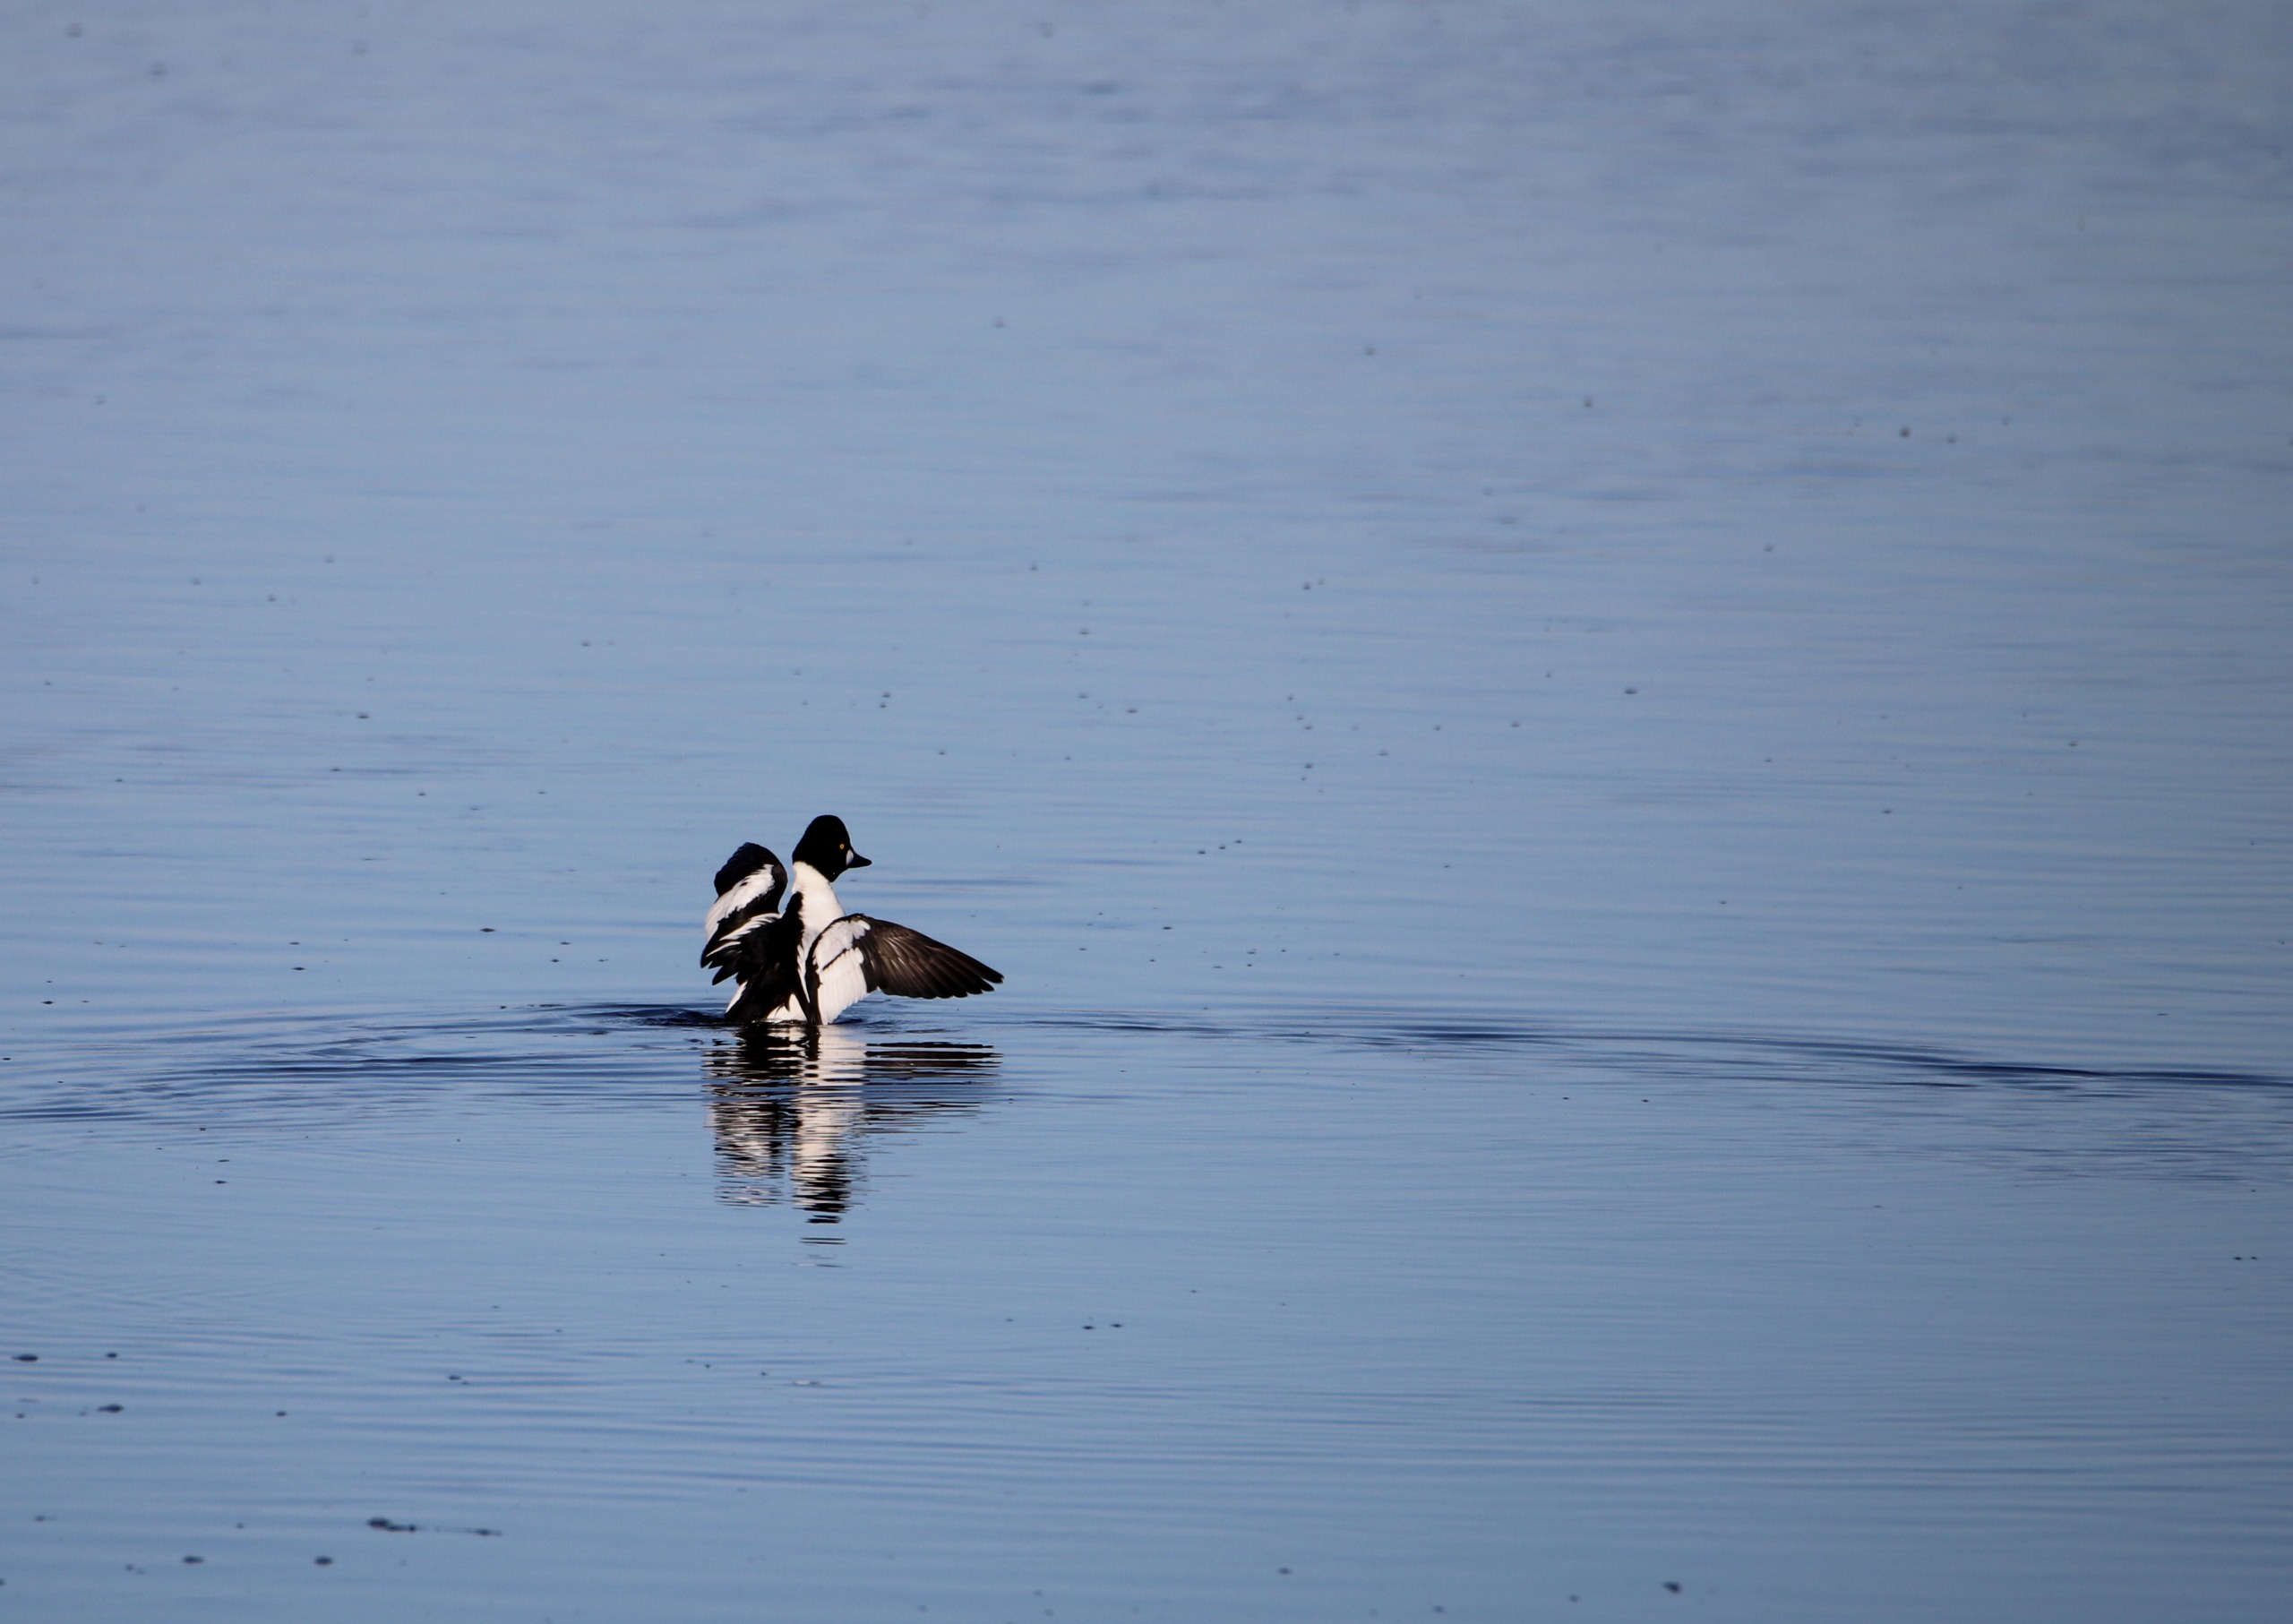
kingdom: Animalia
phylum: Chordata
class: Aves
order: Anseriformes
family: Anatidae
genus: Bucephala
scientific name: Bucephala clangula
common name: Hvinand
